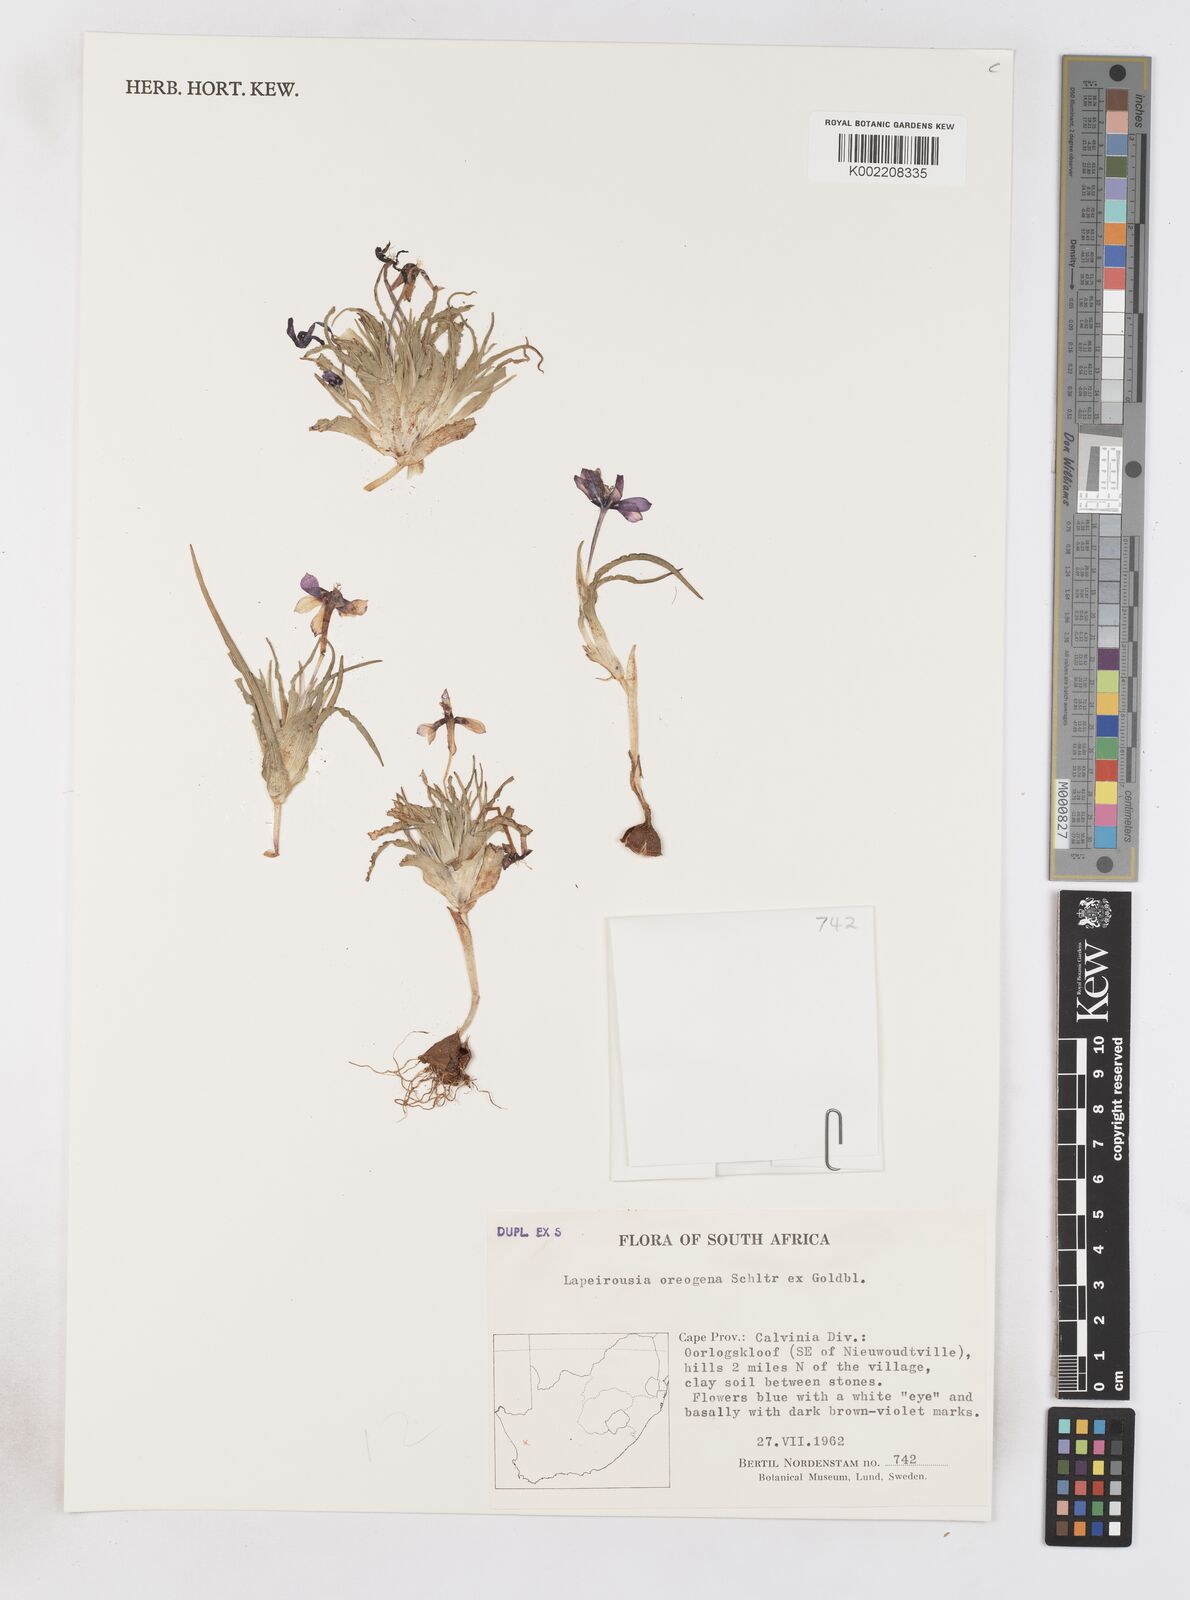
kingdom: Plantae
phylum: Tracheophyta
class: Liliopsida
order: Asparagales
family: Iridaceae
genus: Lapeirousia
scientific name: Lapeirousia oreogena
